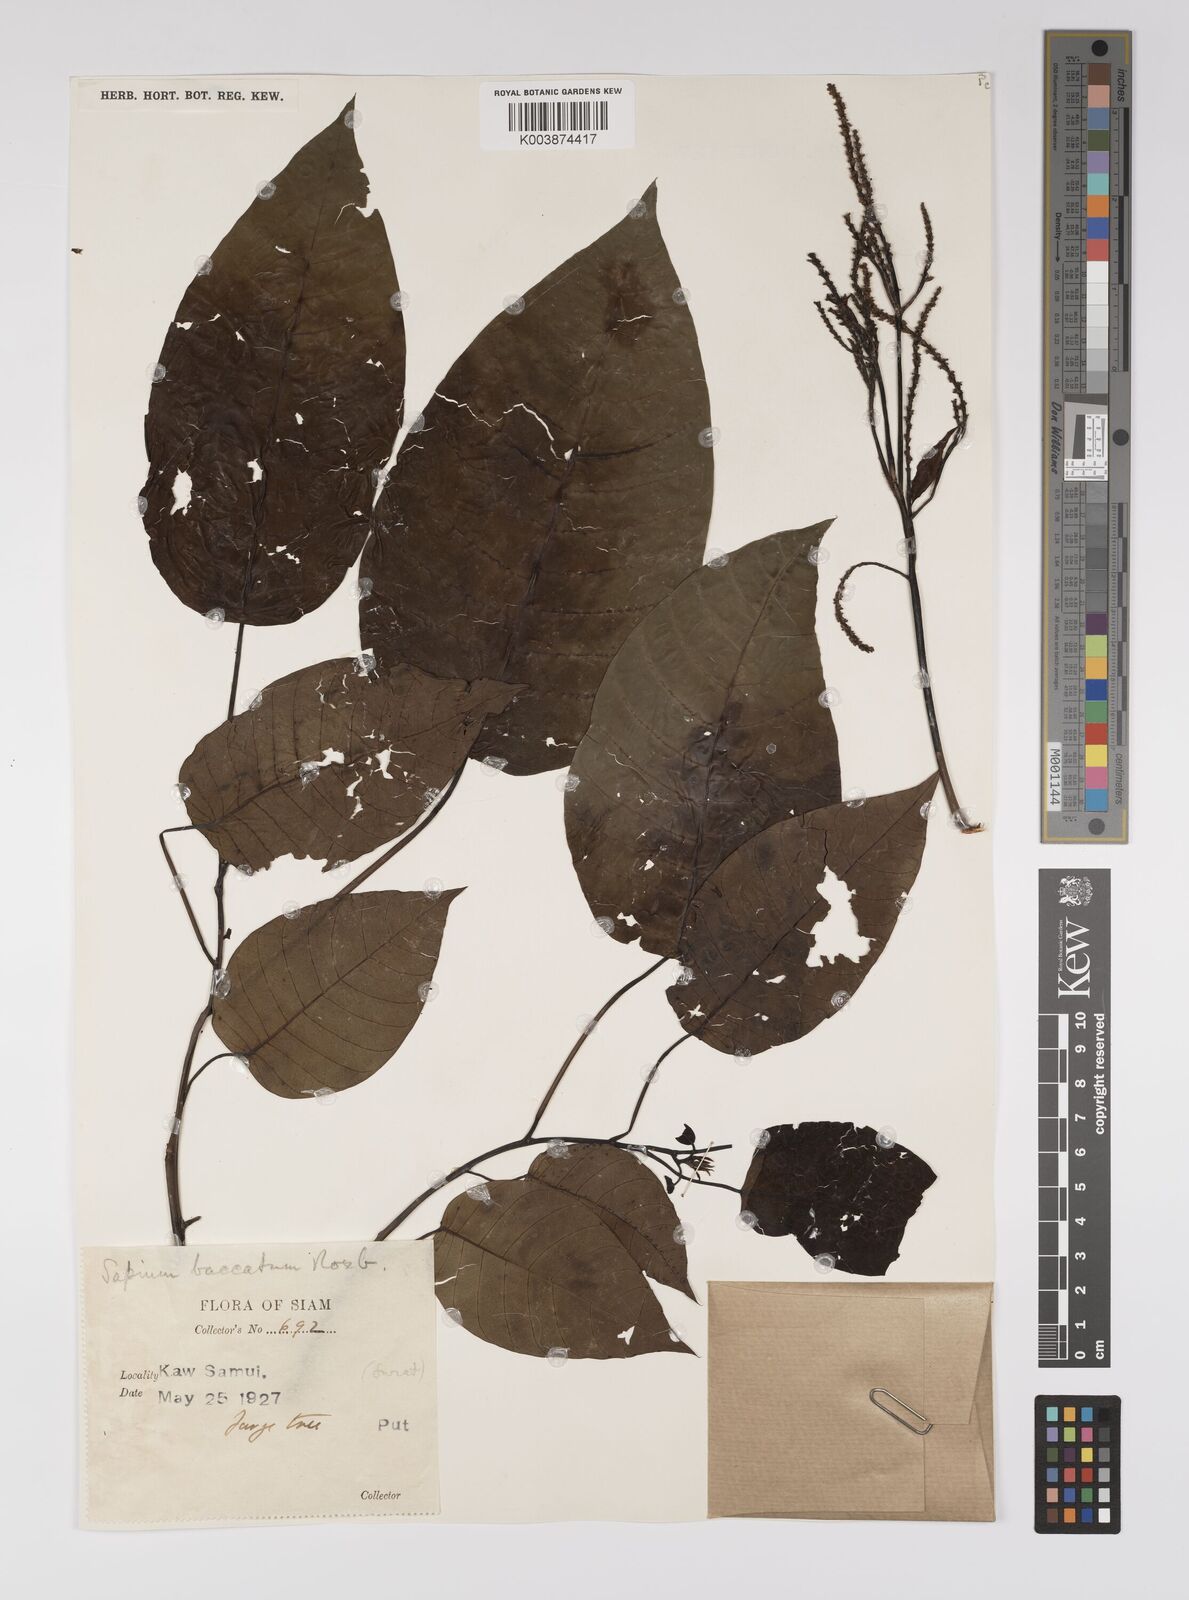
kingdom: Plantae
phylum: Tracheophyta
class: Magnoliopsida
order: Malpighiales
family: Euphorbiaceae
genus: Balakata
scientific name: Balakata baccata
